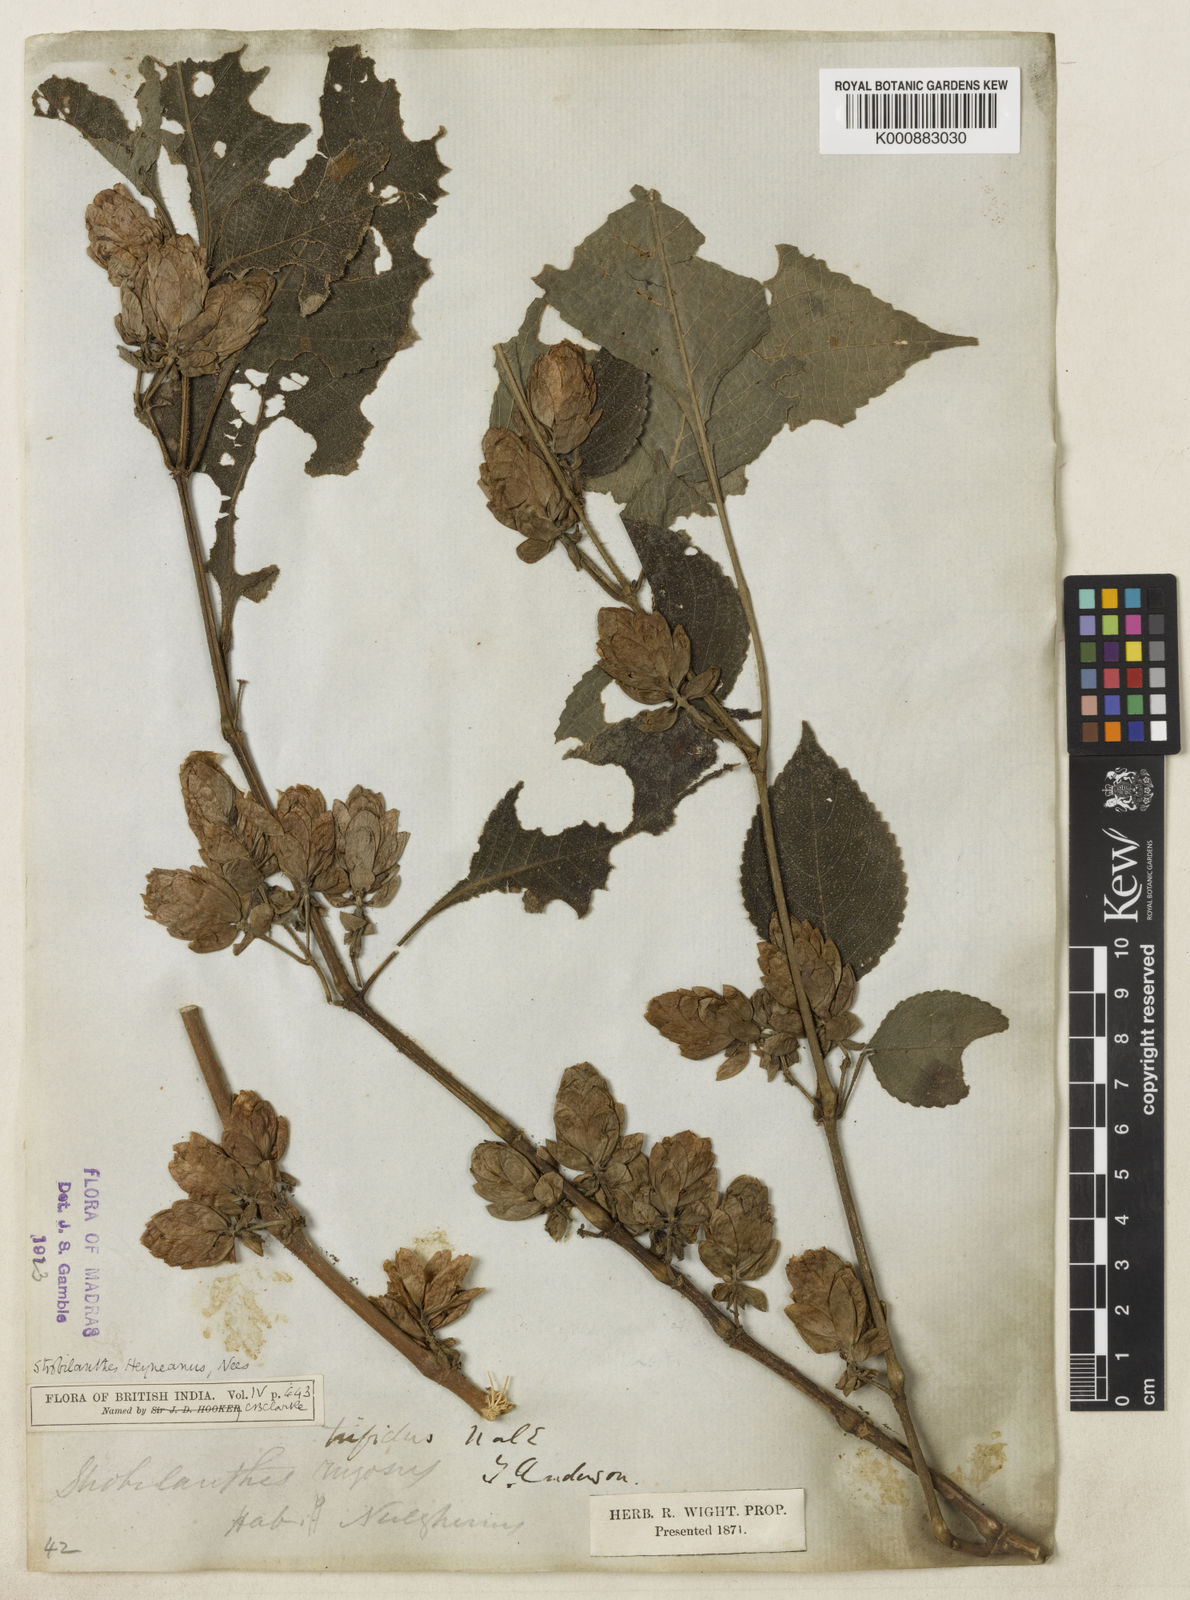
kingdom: Plantae
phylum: Tracheophyta
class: Magnoliopsida
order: Lamiales
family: Acanthaceae
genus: Strobilanthes
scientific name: Strobilanthes heyneana
